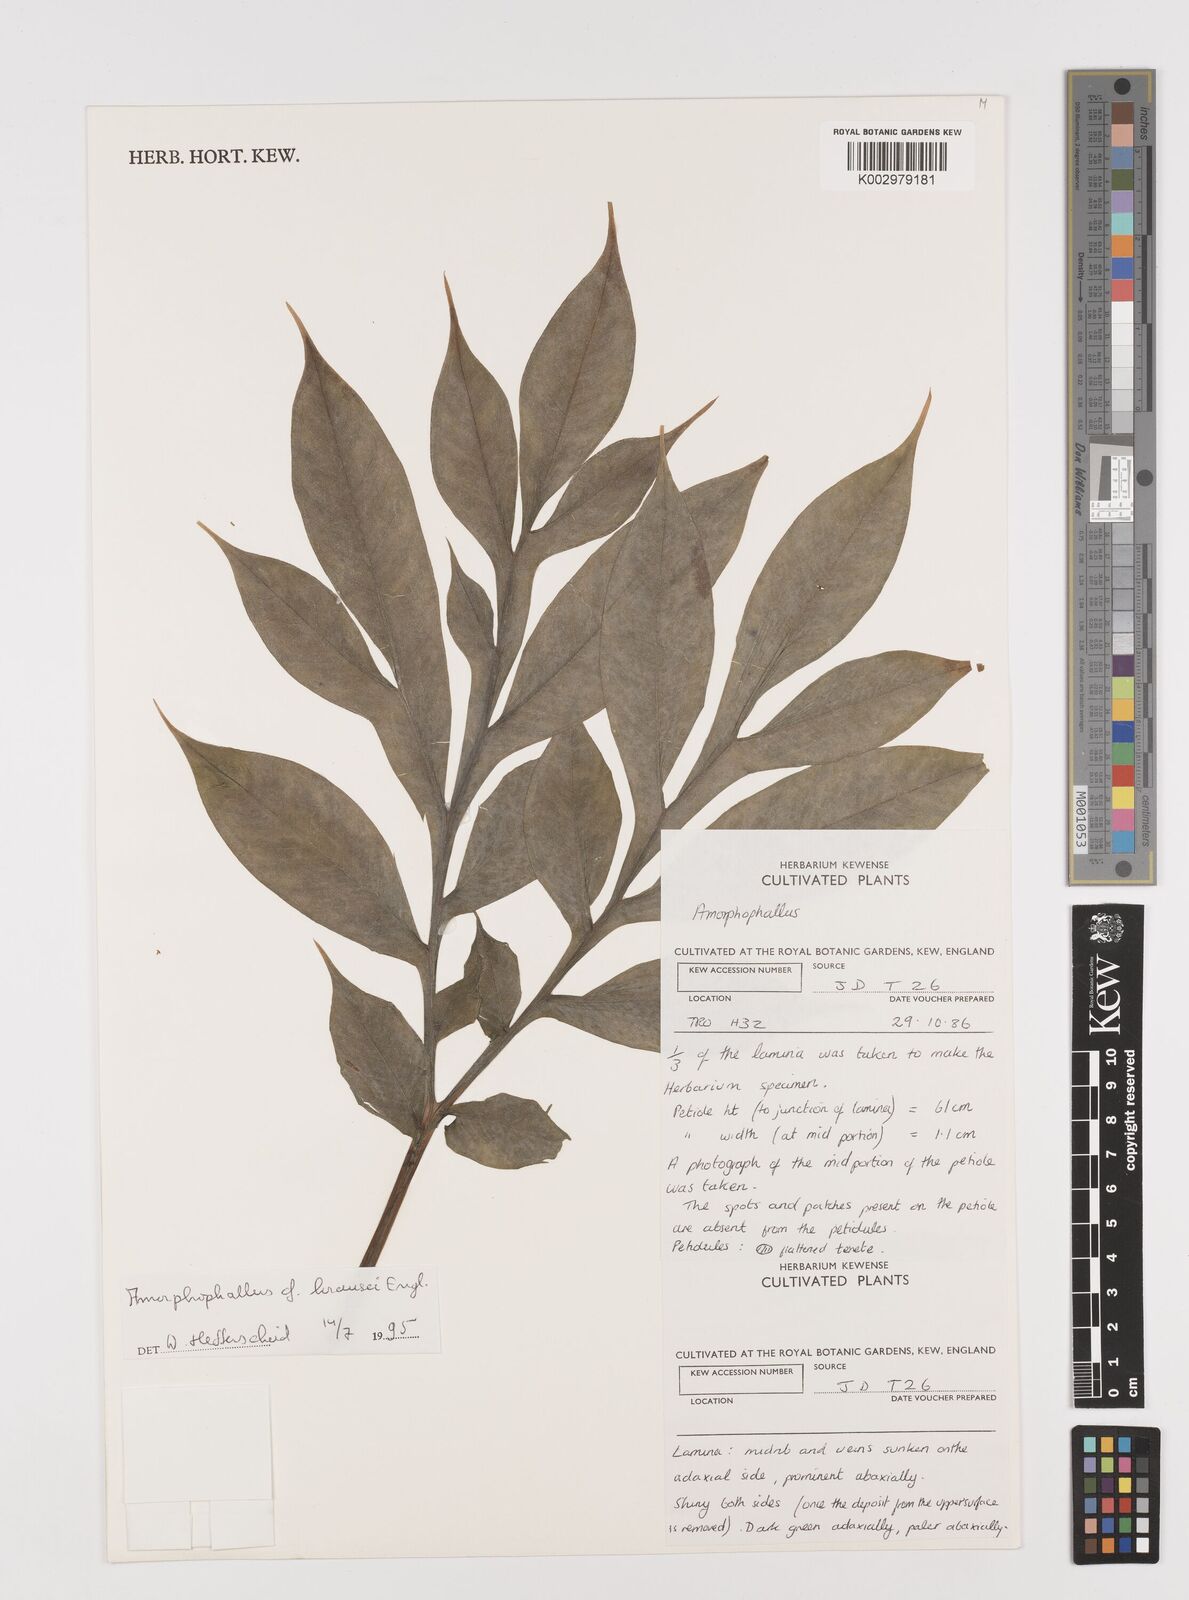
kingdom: Plantae
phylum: Tracheophyta
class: Liliopsida
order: Alismatales
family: Araceae
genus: Amorphophallus
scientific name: Amorphophallus krausei
